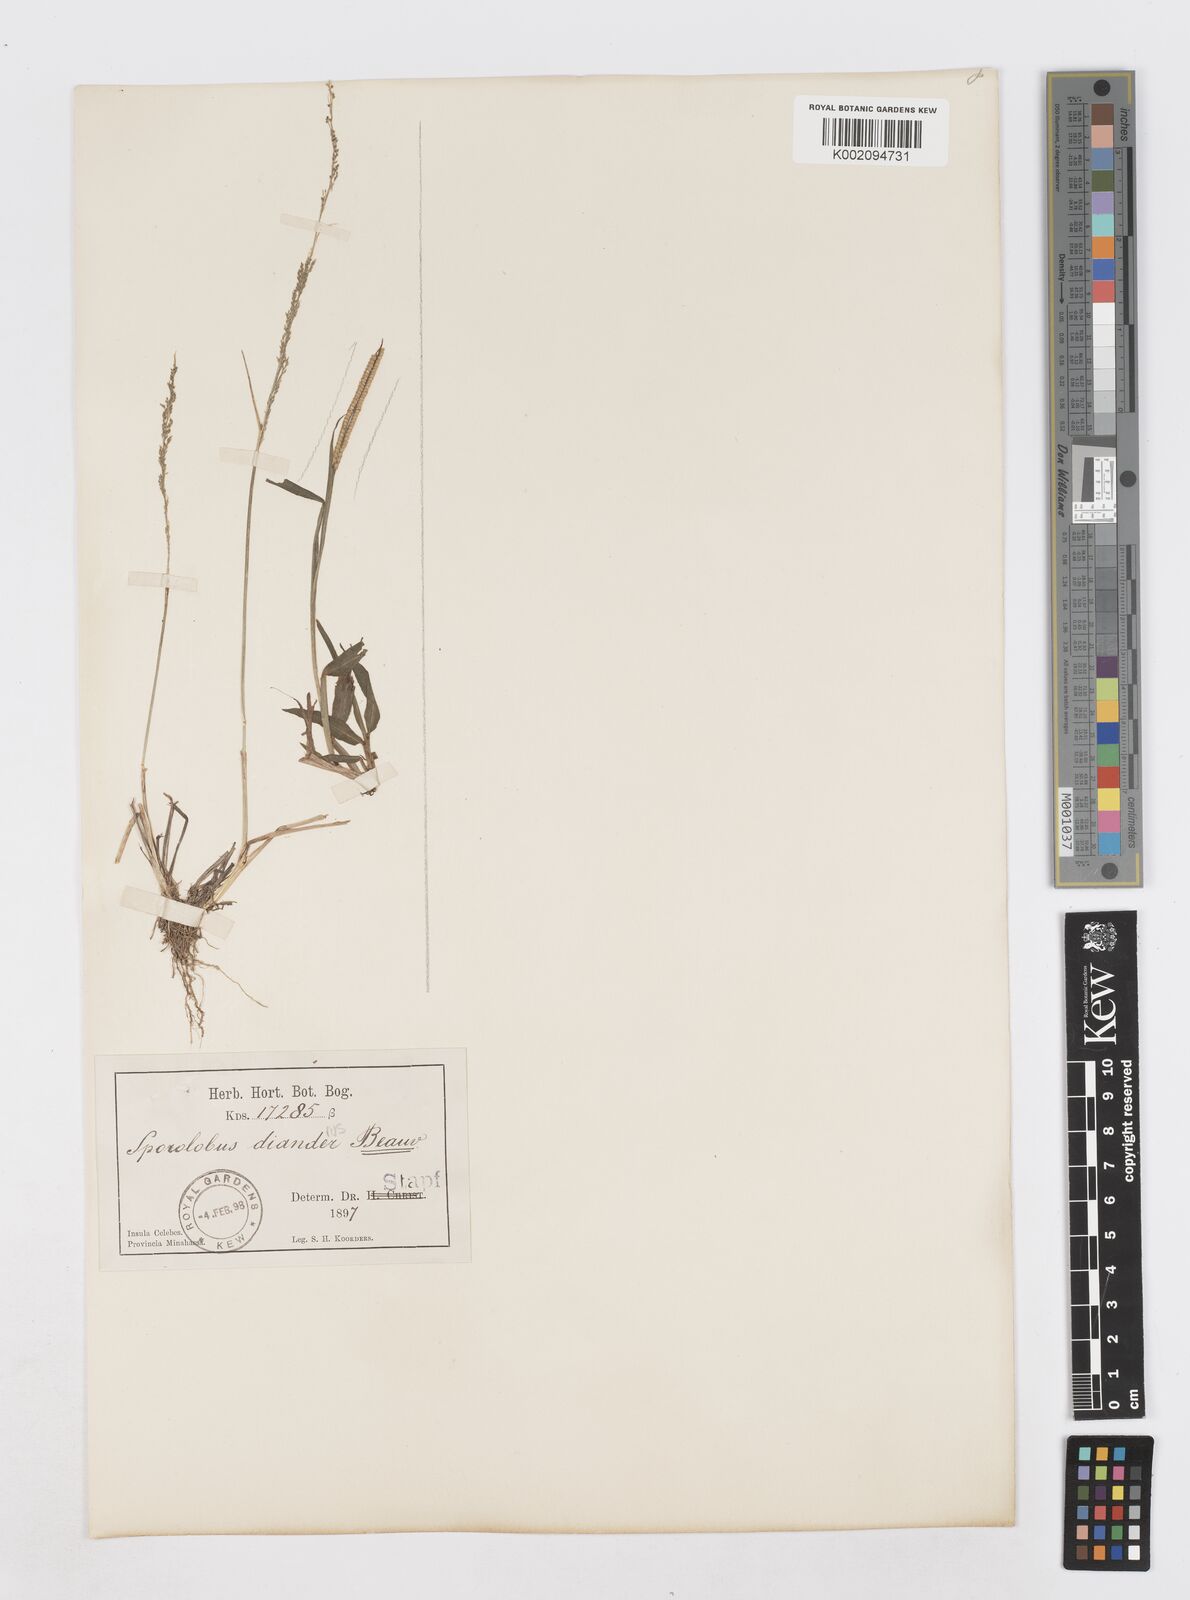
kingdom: Plantae
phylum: Tracheophyta
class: Liliopsida
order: Poales
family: Poaceae
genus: Sporobolus
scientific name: Sporobolus diandrus
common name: Tussock dropseed
